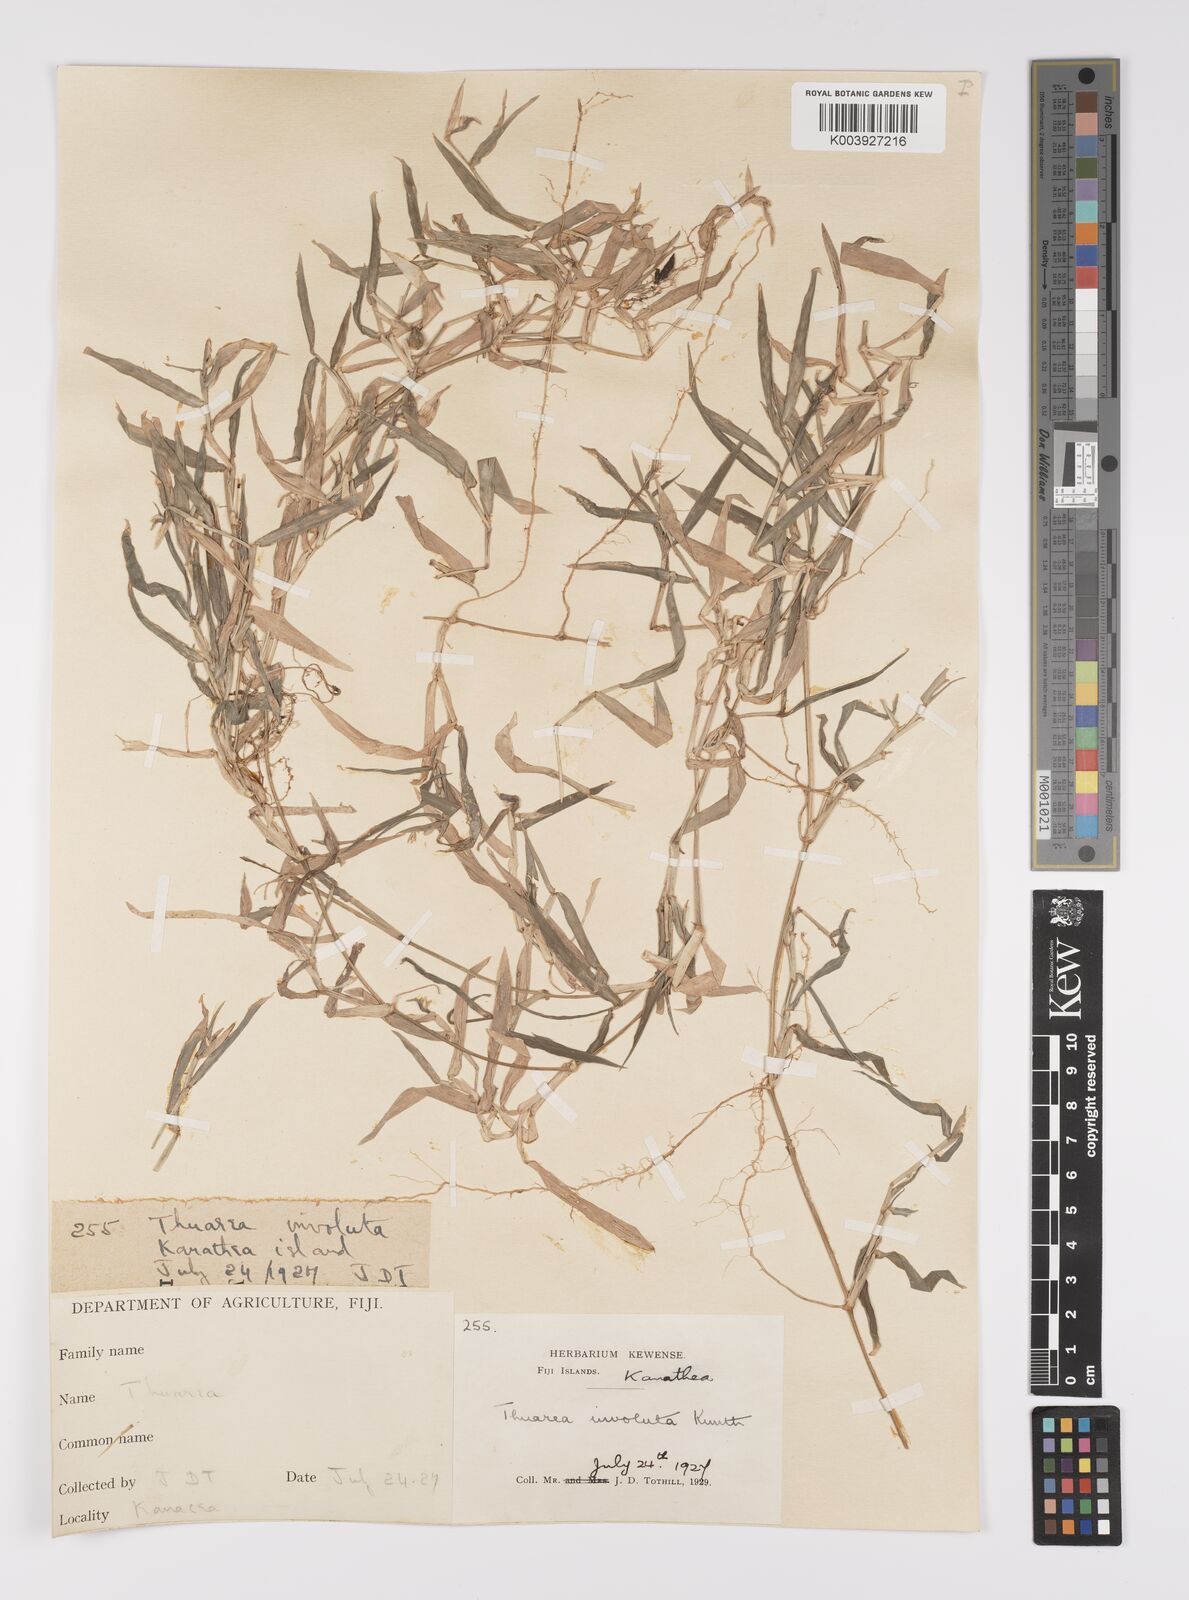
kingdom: Plantae
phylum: Tracheophyta
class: Liliopsida
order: Poales
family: Poaceae
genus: Thuarea
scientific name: Thuarea involuta
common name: Tropical beach grass
